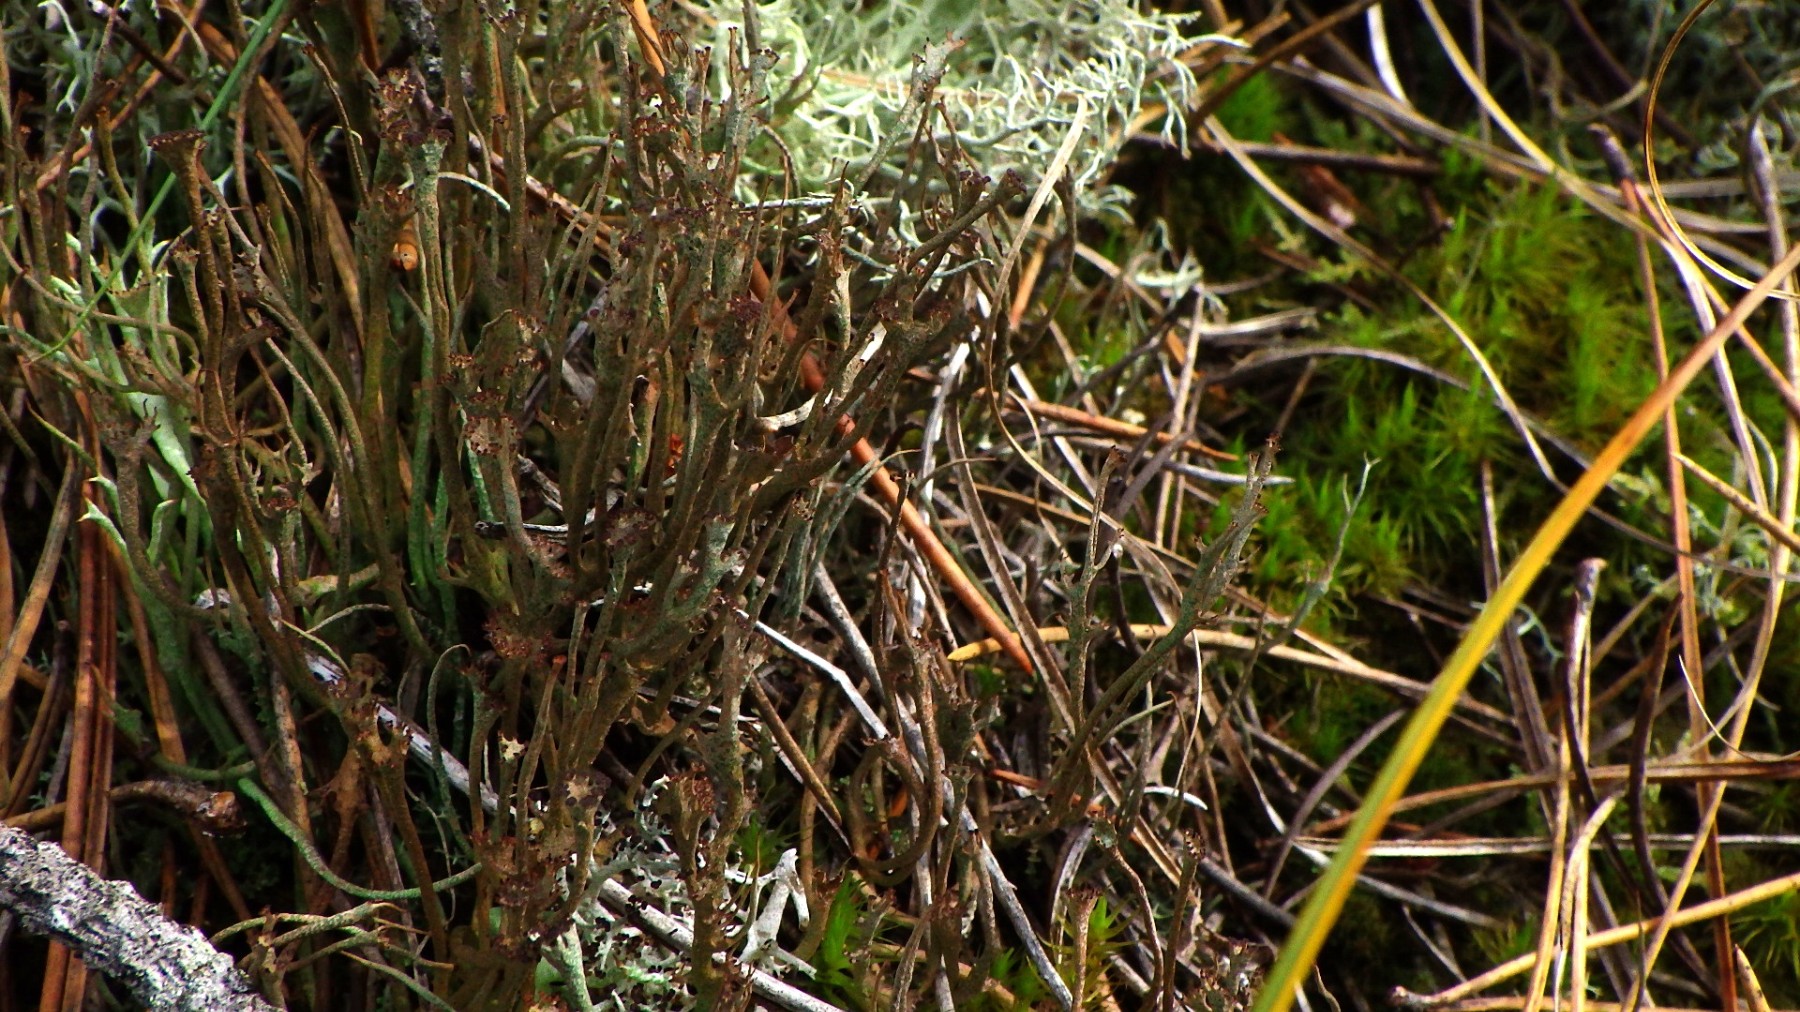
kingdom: Fungi
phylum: Ascomycota
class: Lecanoromycetes
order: Lecanorales
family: Cladoniaceae
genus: Cladonia
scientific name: Cladonia gracilis
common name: slank bægerlav
